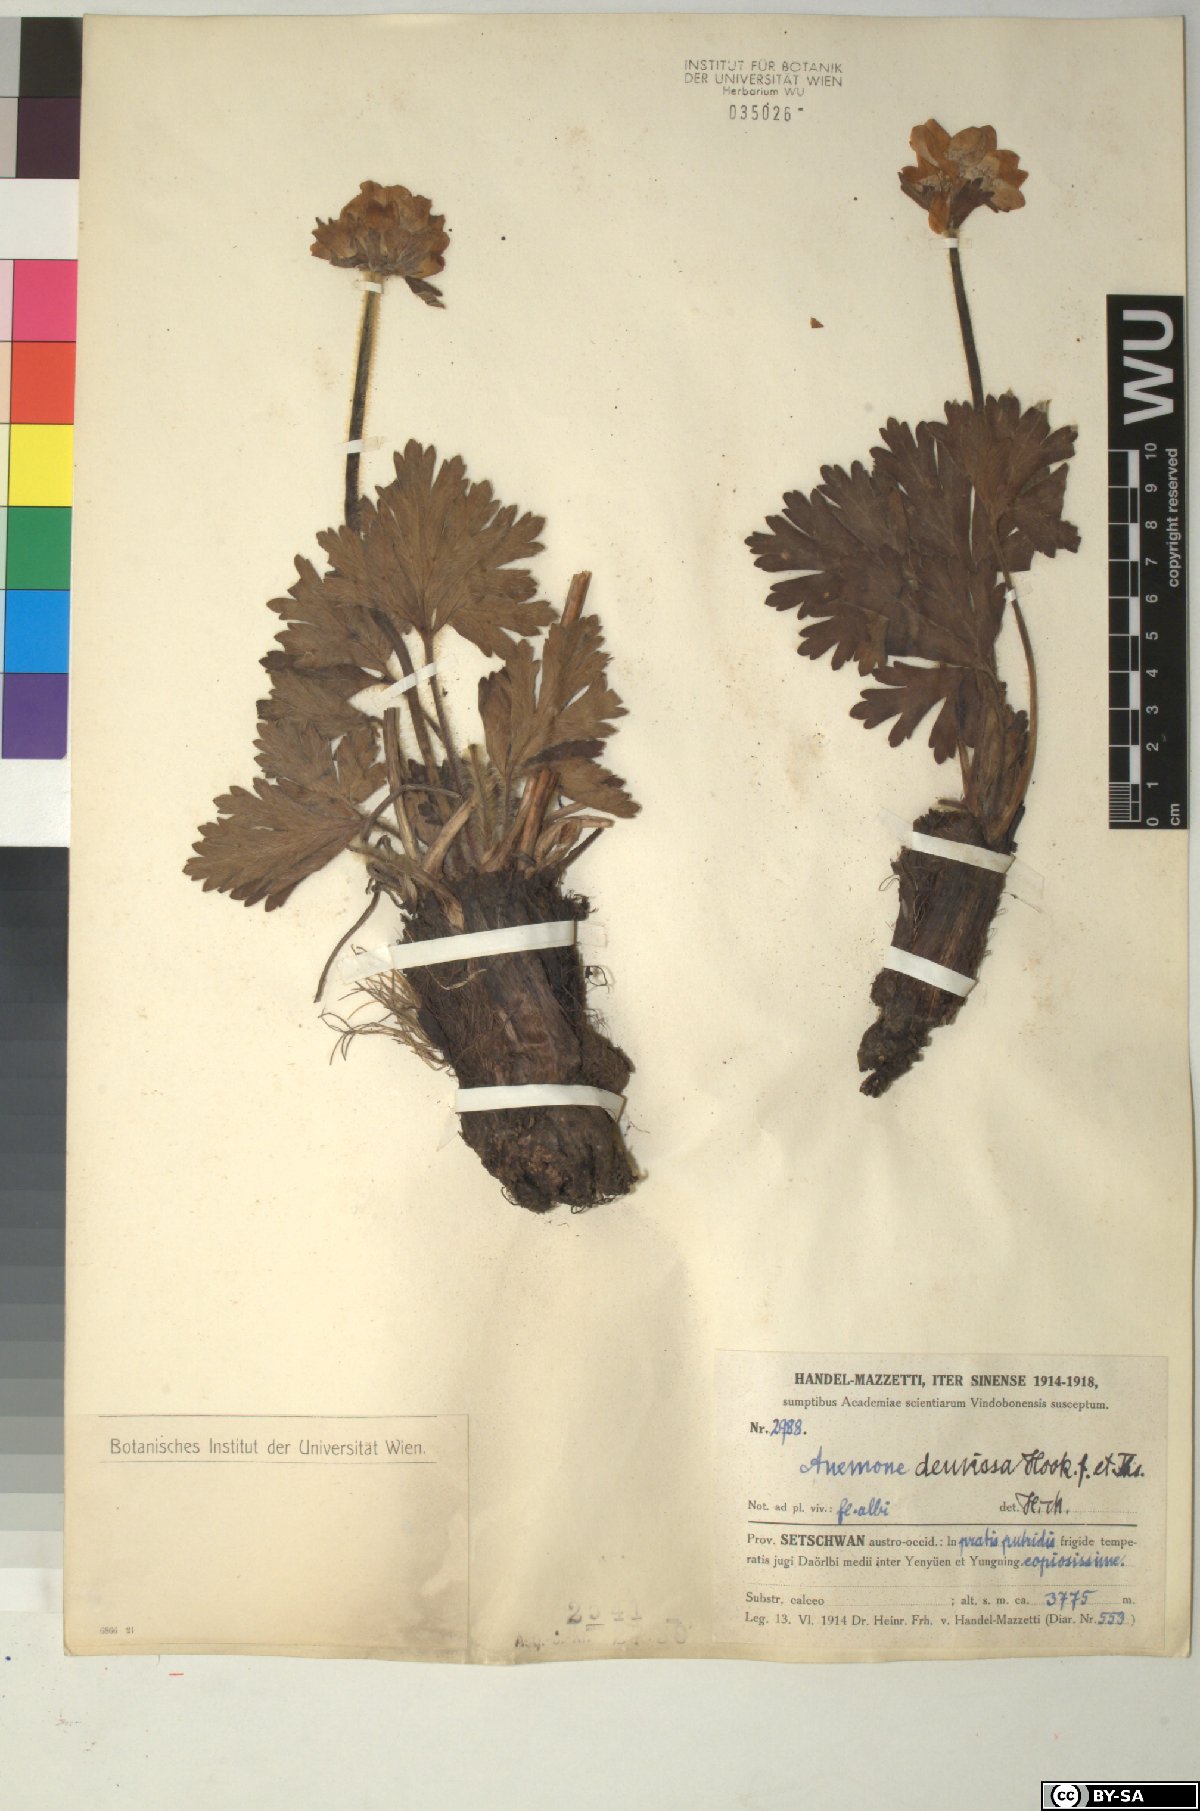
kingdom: Plantae
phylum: Tracheophyta
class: Magnoliopsida
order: Ranunculales
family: Ranunculaceae
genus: Anemonastrum
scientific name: Anemonastrum demissum
